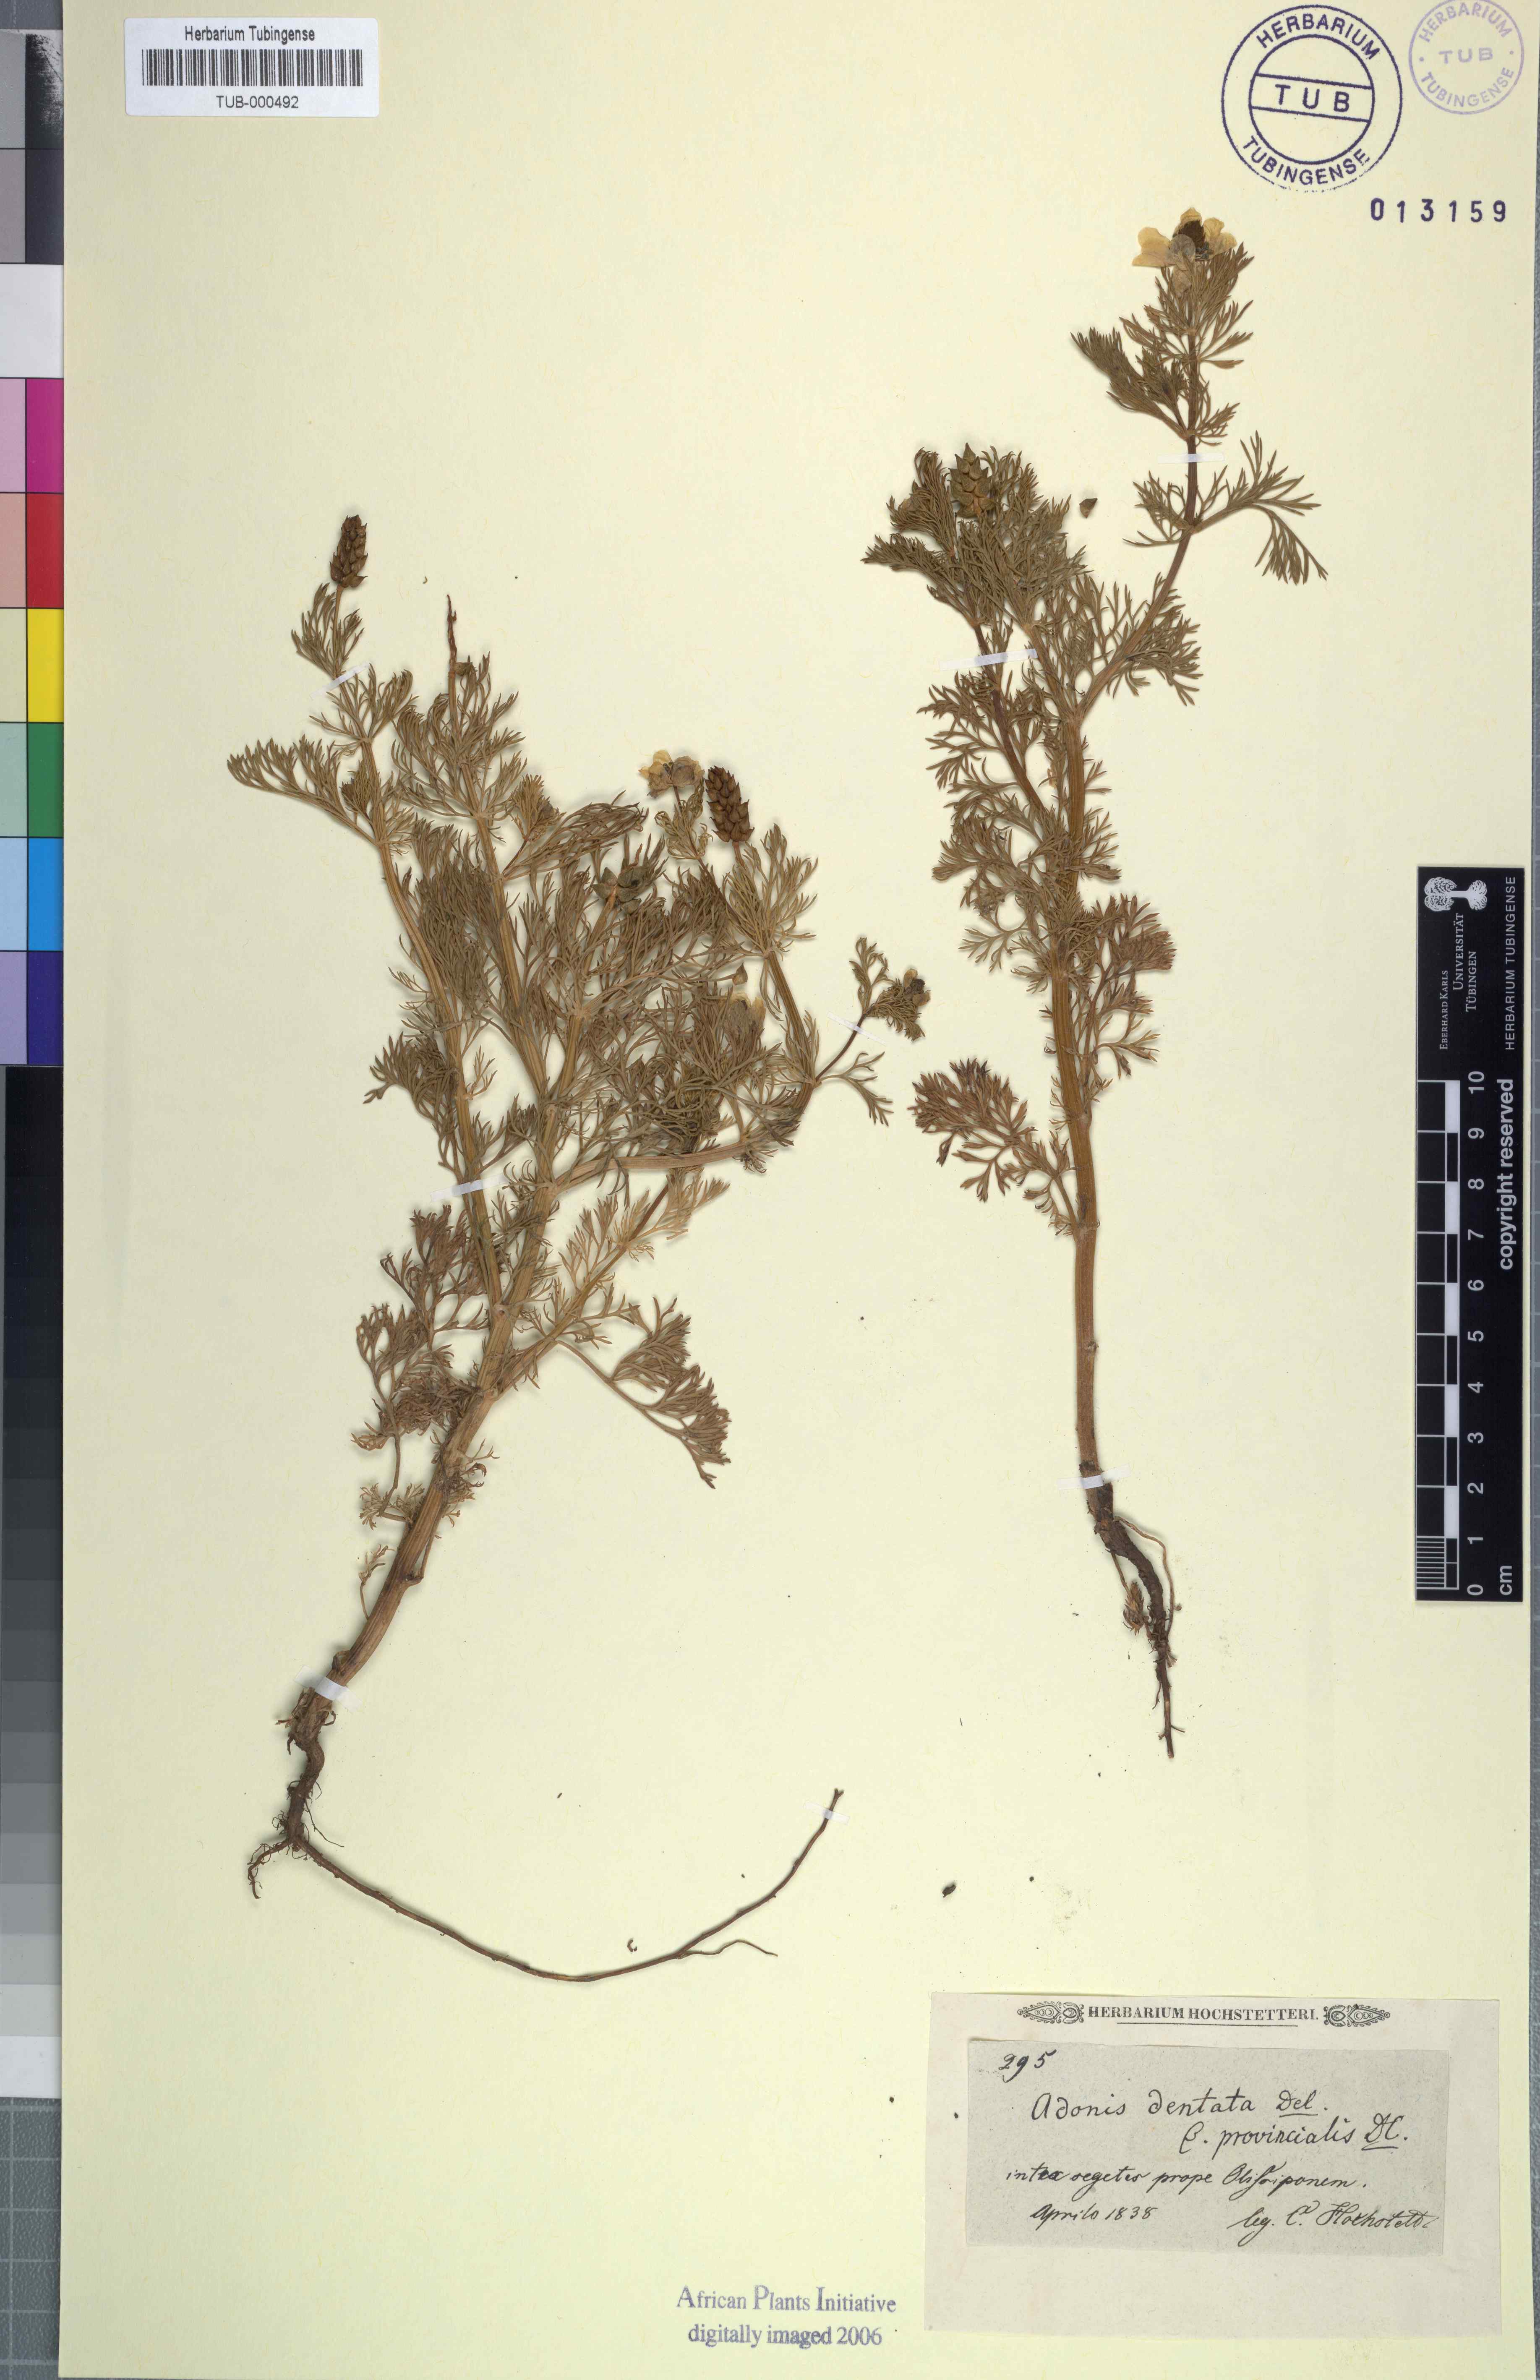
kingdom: Plantae
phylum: Tracheophyta
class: Magnoliopsida
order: Ranunculales
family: Ranunculaceae
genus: Adonis
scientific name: Adonis dentata
